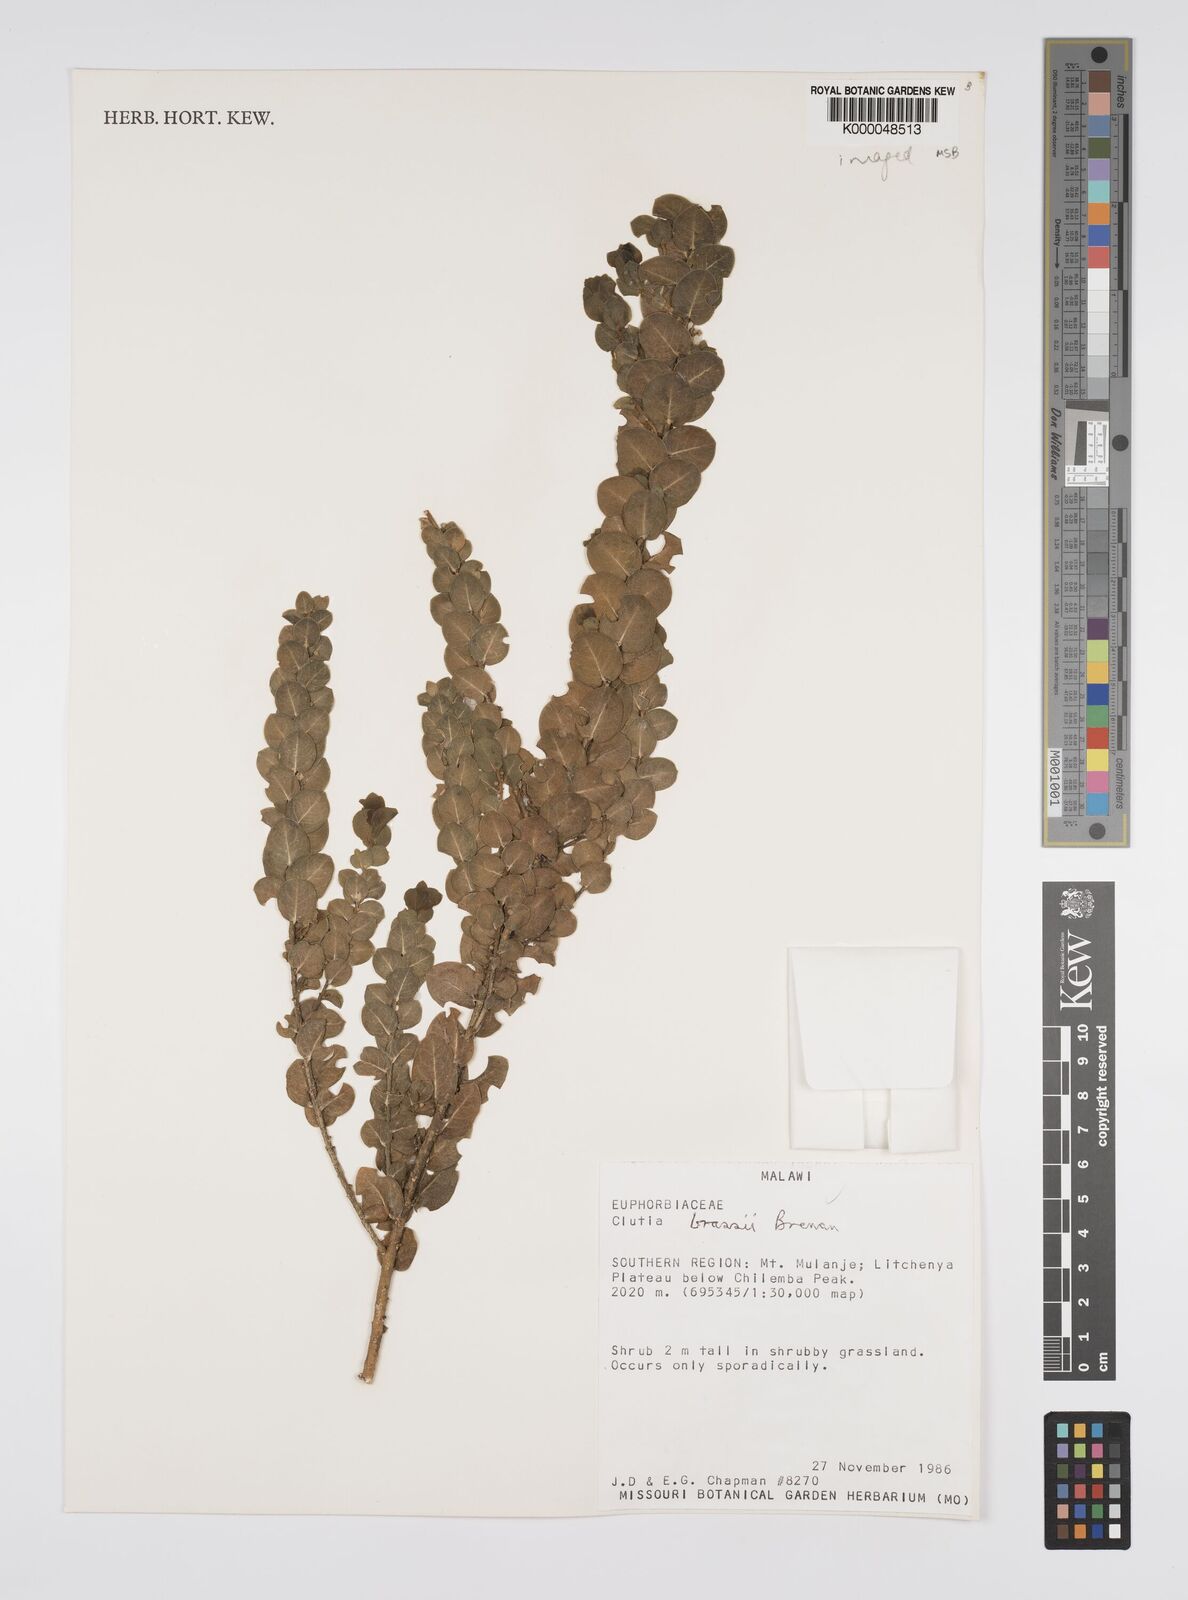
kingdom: Plantae
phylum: Tracheophyta
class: Magnoliopsida
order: Malpighiales
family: Peraceae
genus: Clutia
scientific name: Clutia brassii
